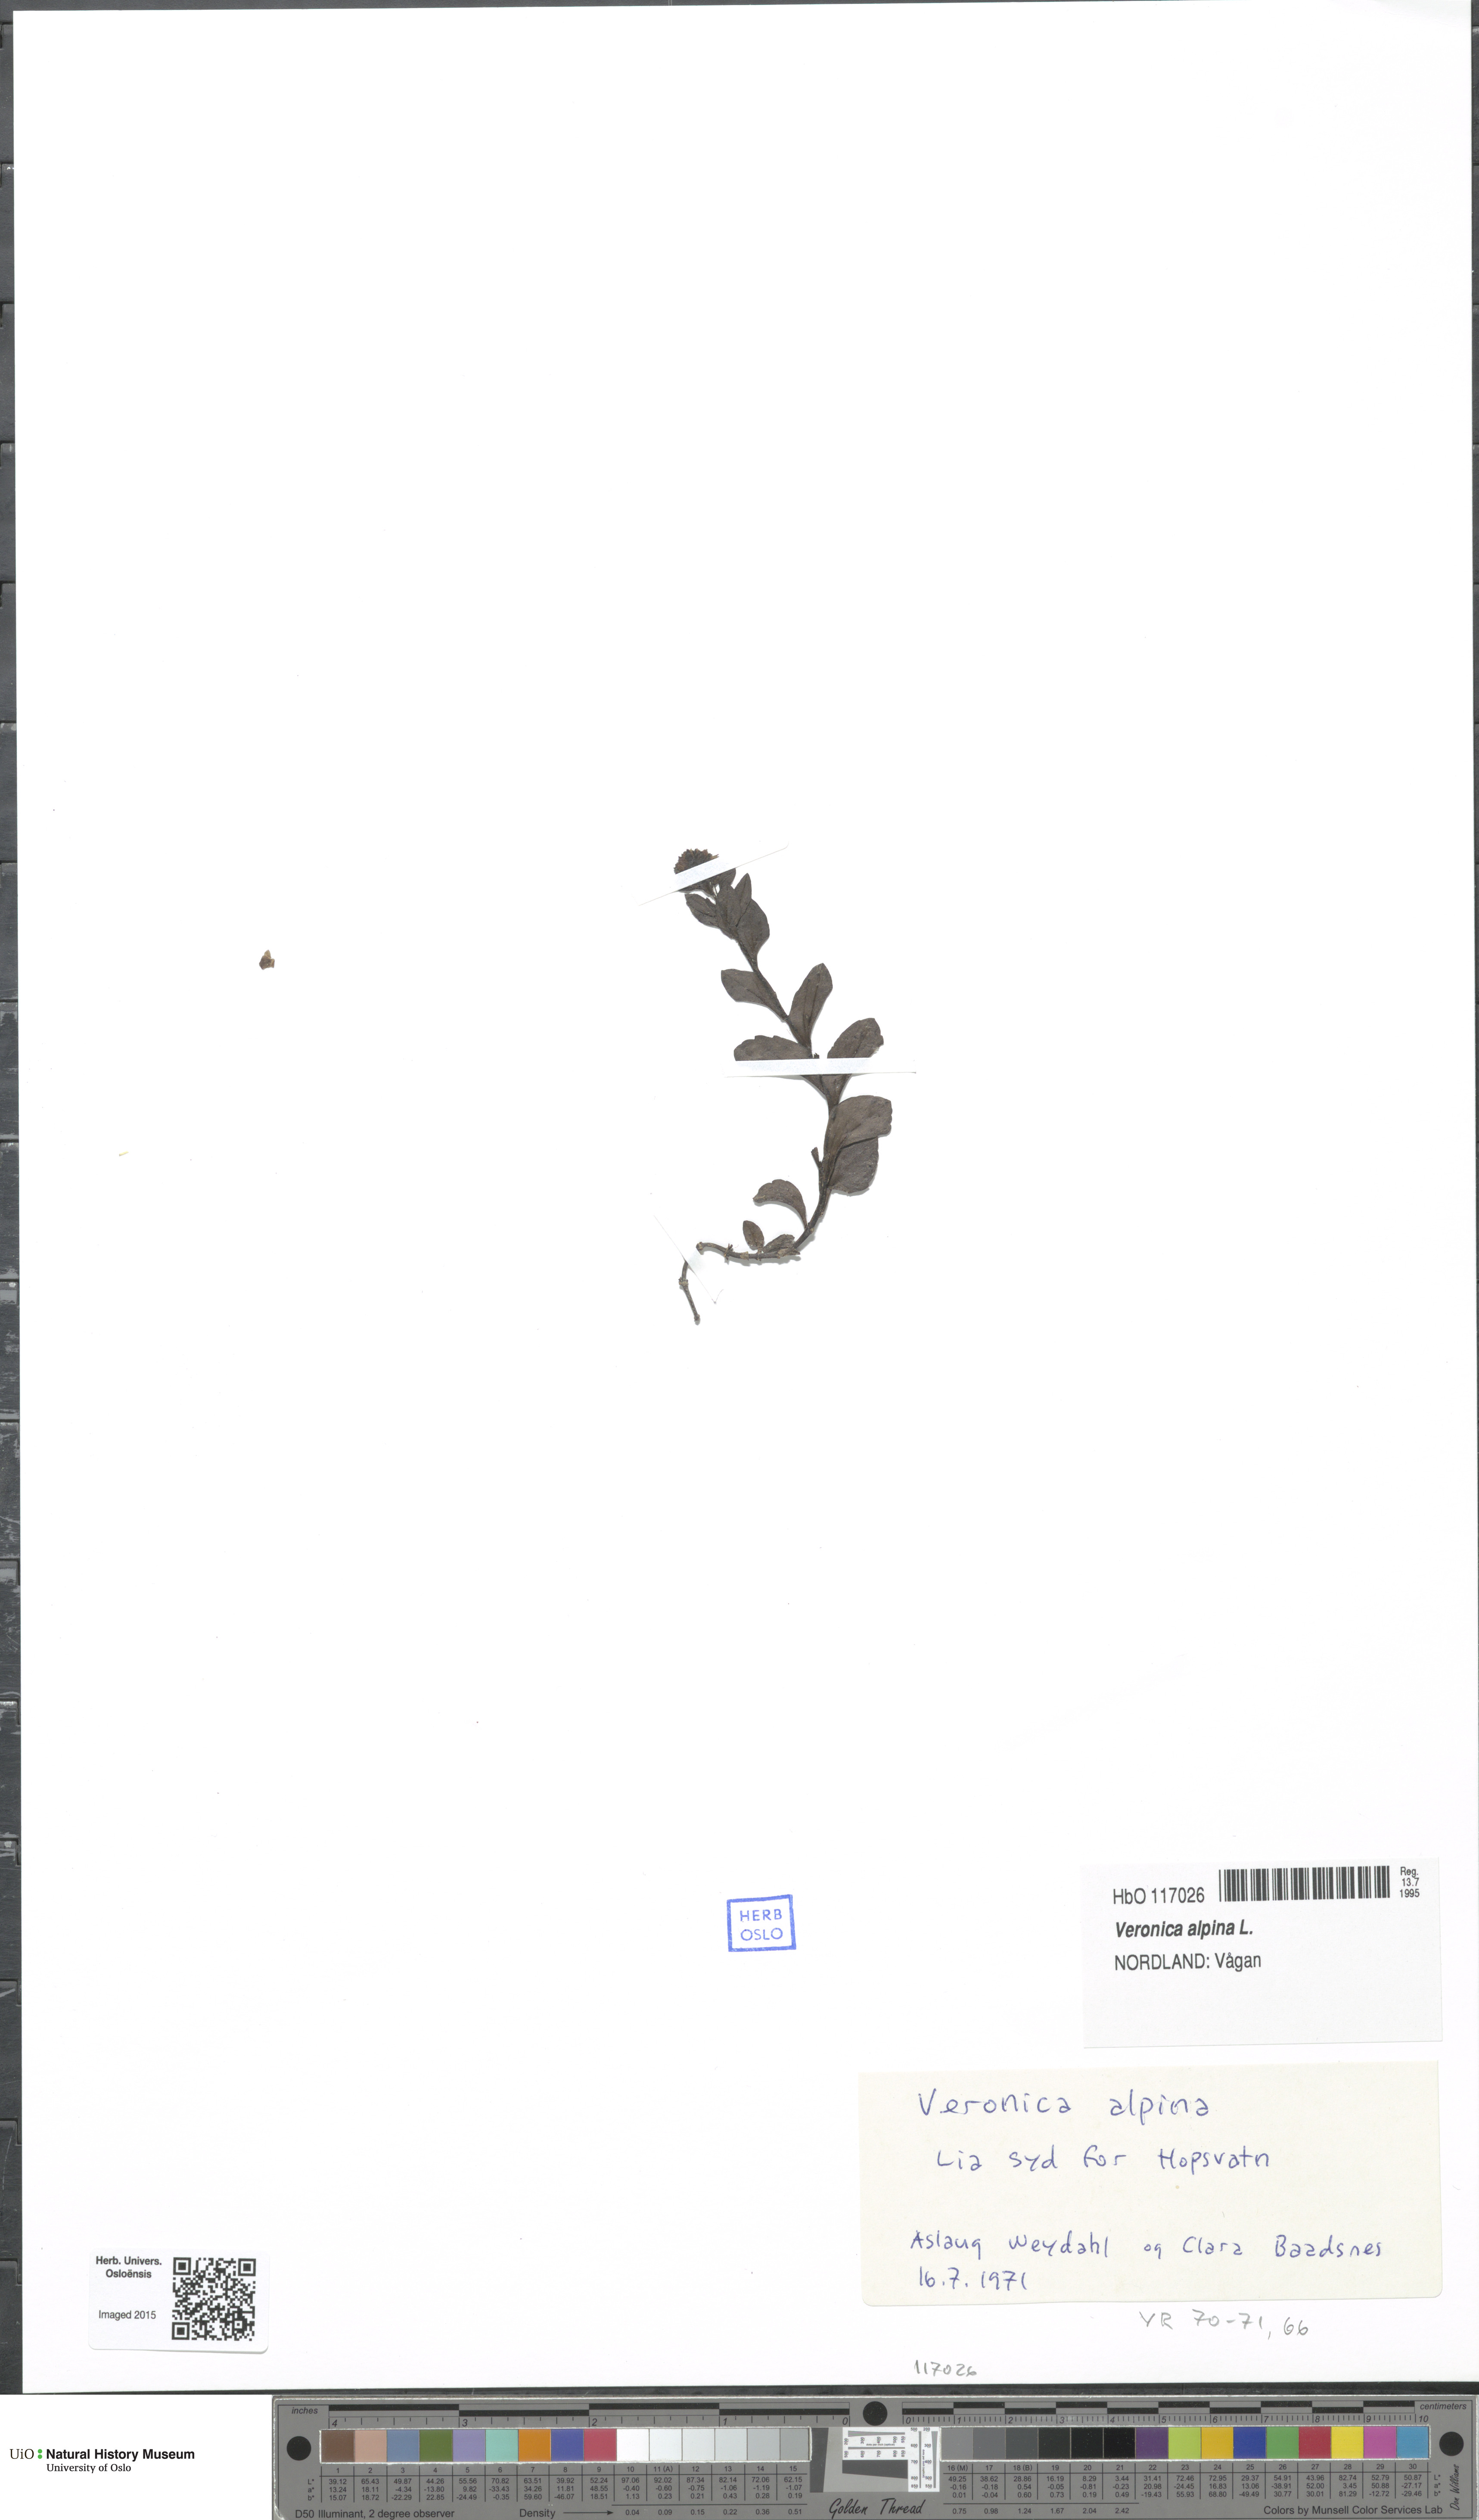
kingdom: Plantae
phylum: Tracheophyta
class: Magnoliopsida
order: Lamiales
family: Plantaginaceae
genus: Veronica
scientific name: Veronica alpina
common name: Alpine speedwell
